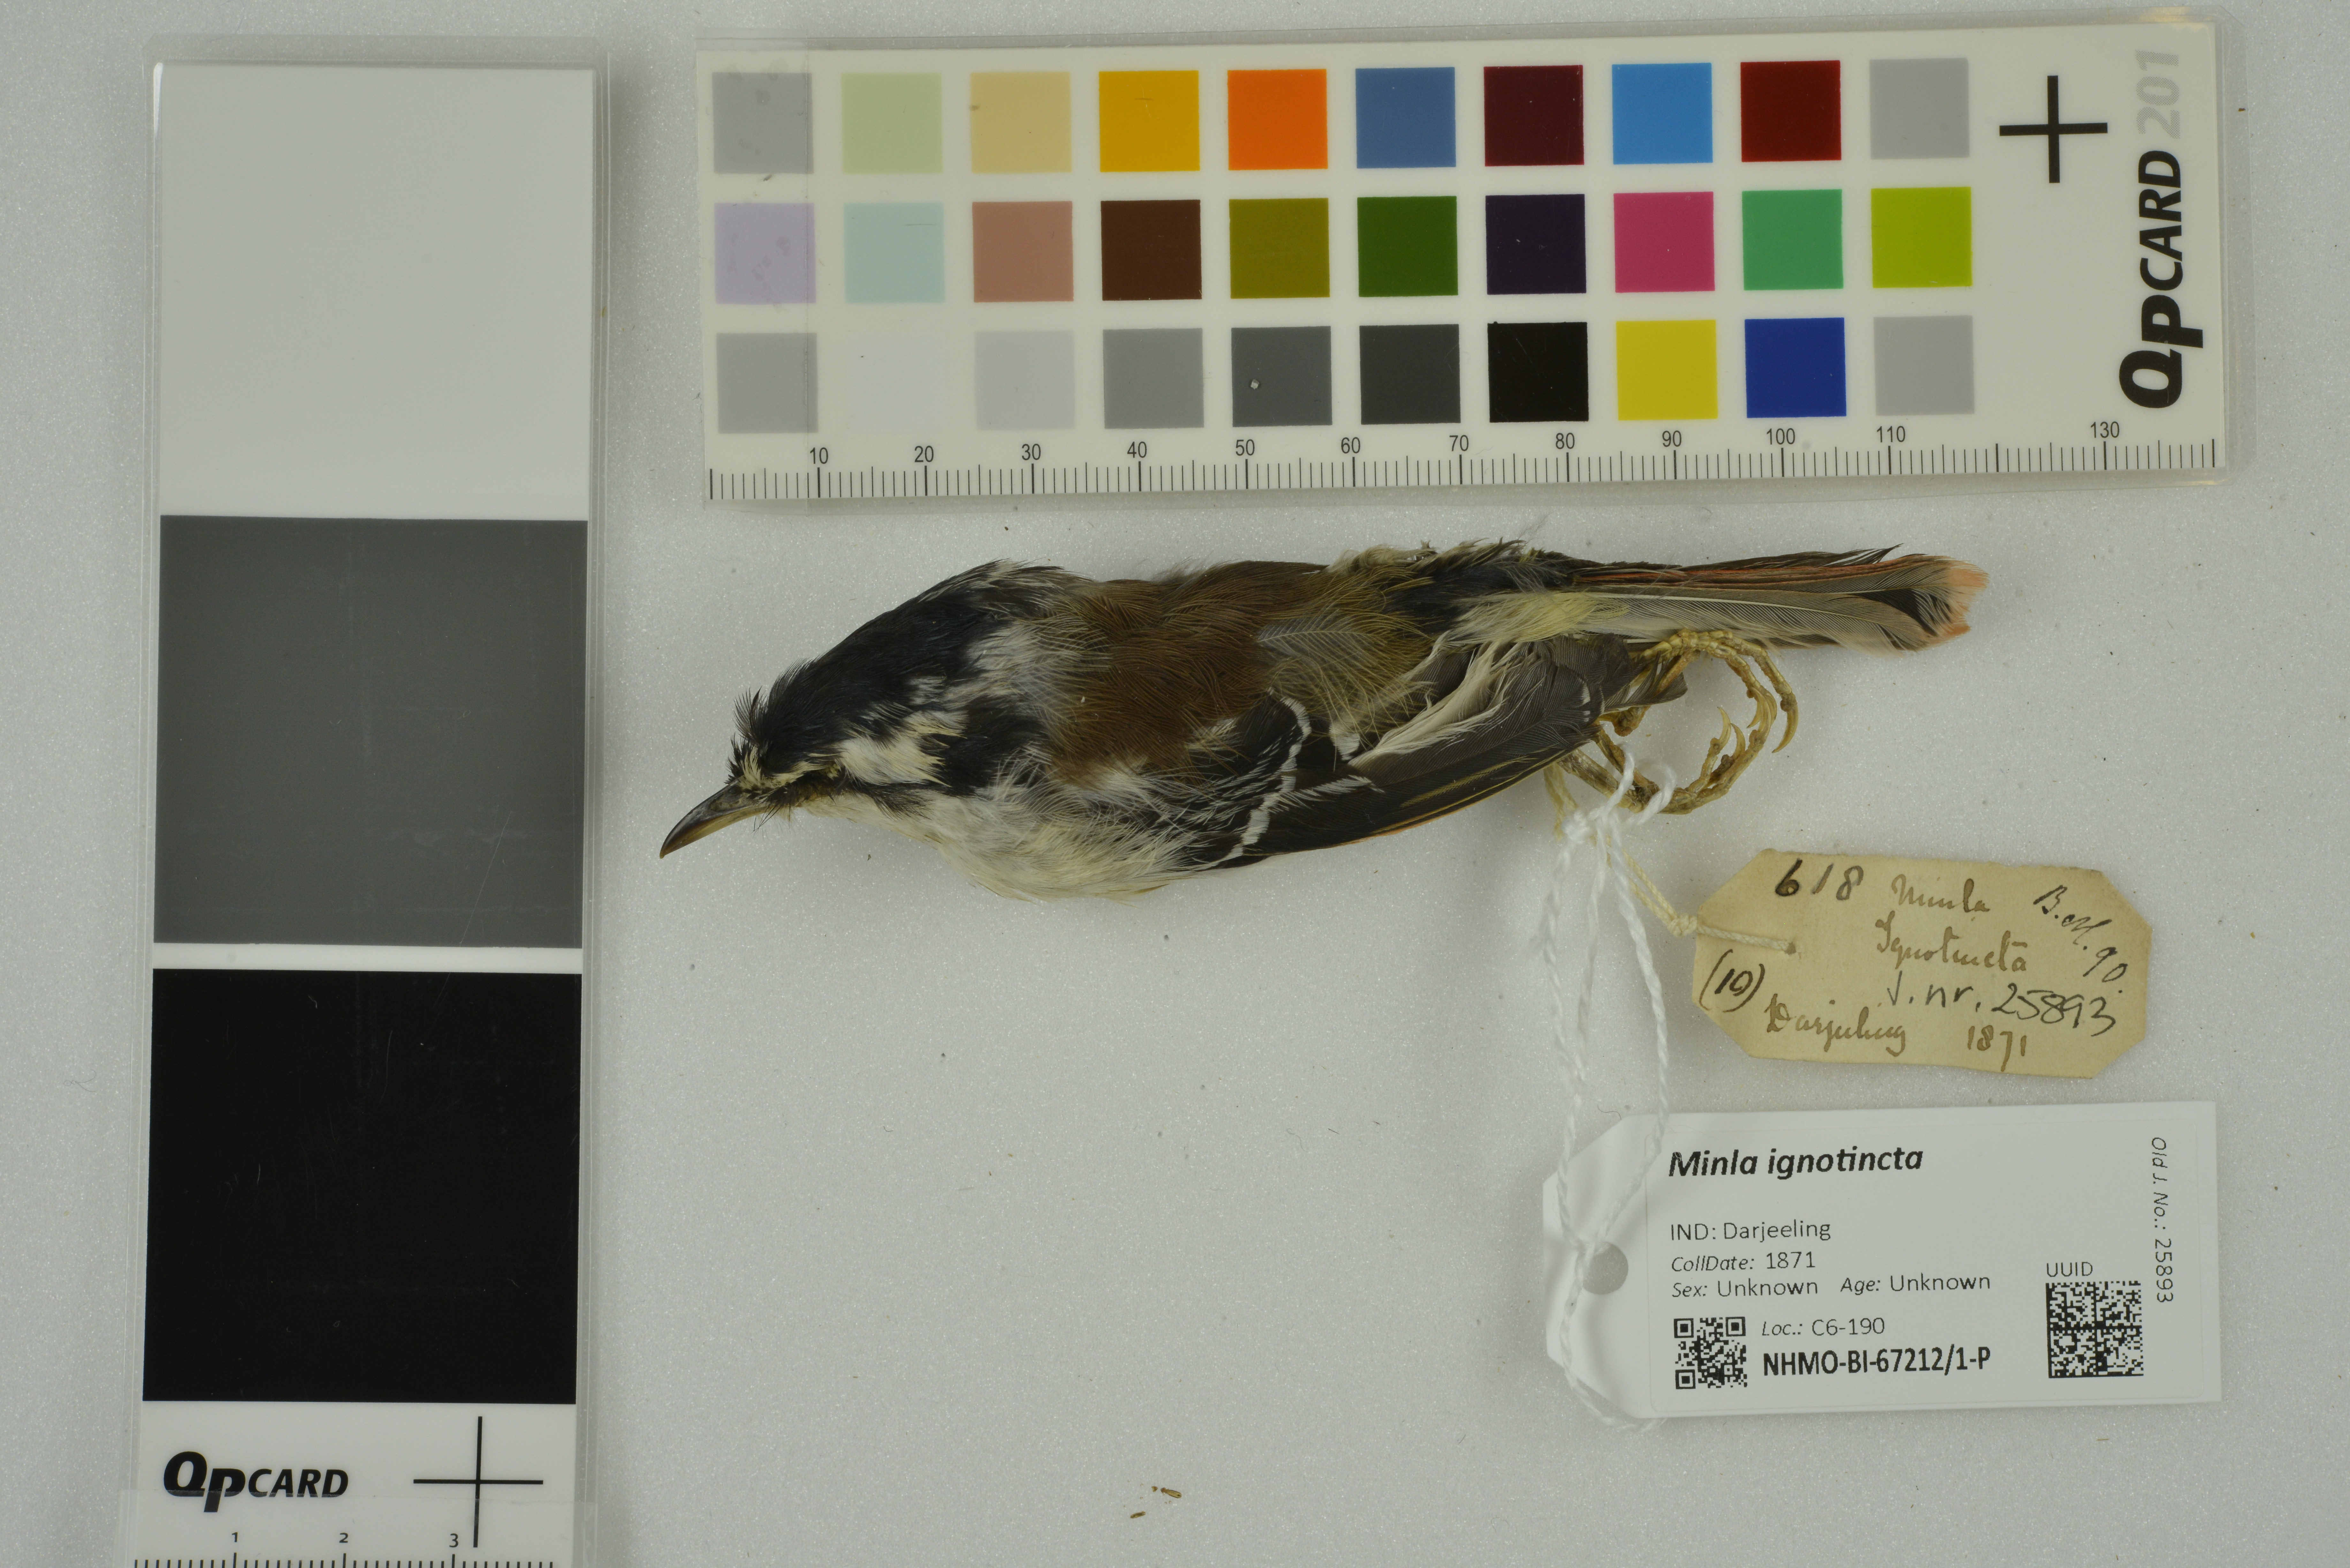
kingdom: Animalia
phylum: Chordata
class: Aves
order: Passeriformes
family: Leiothrichidae
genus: Minla
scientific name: Minla ignotincta
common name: Red-tailed minla
